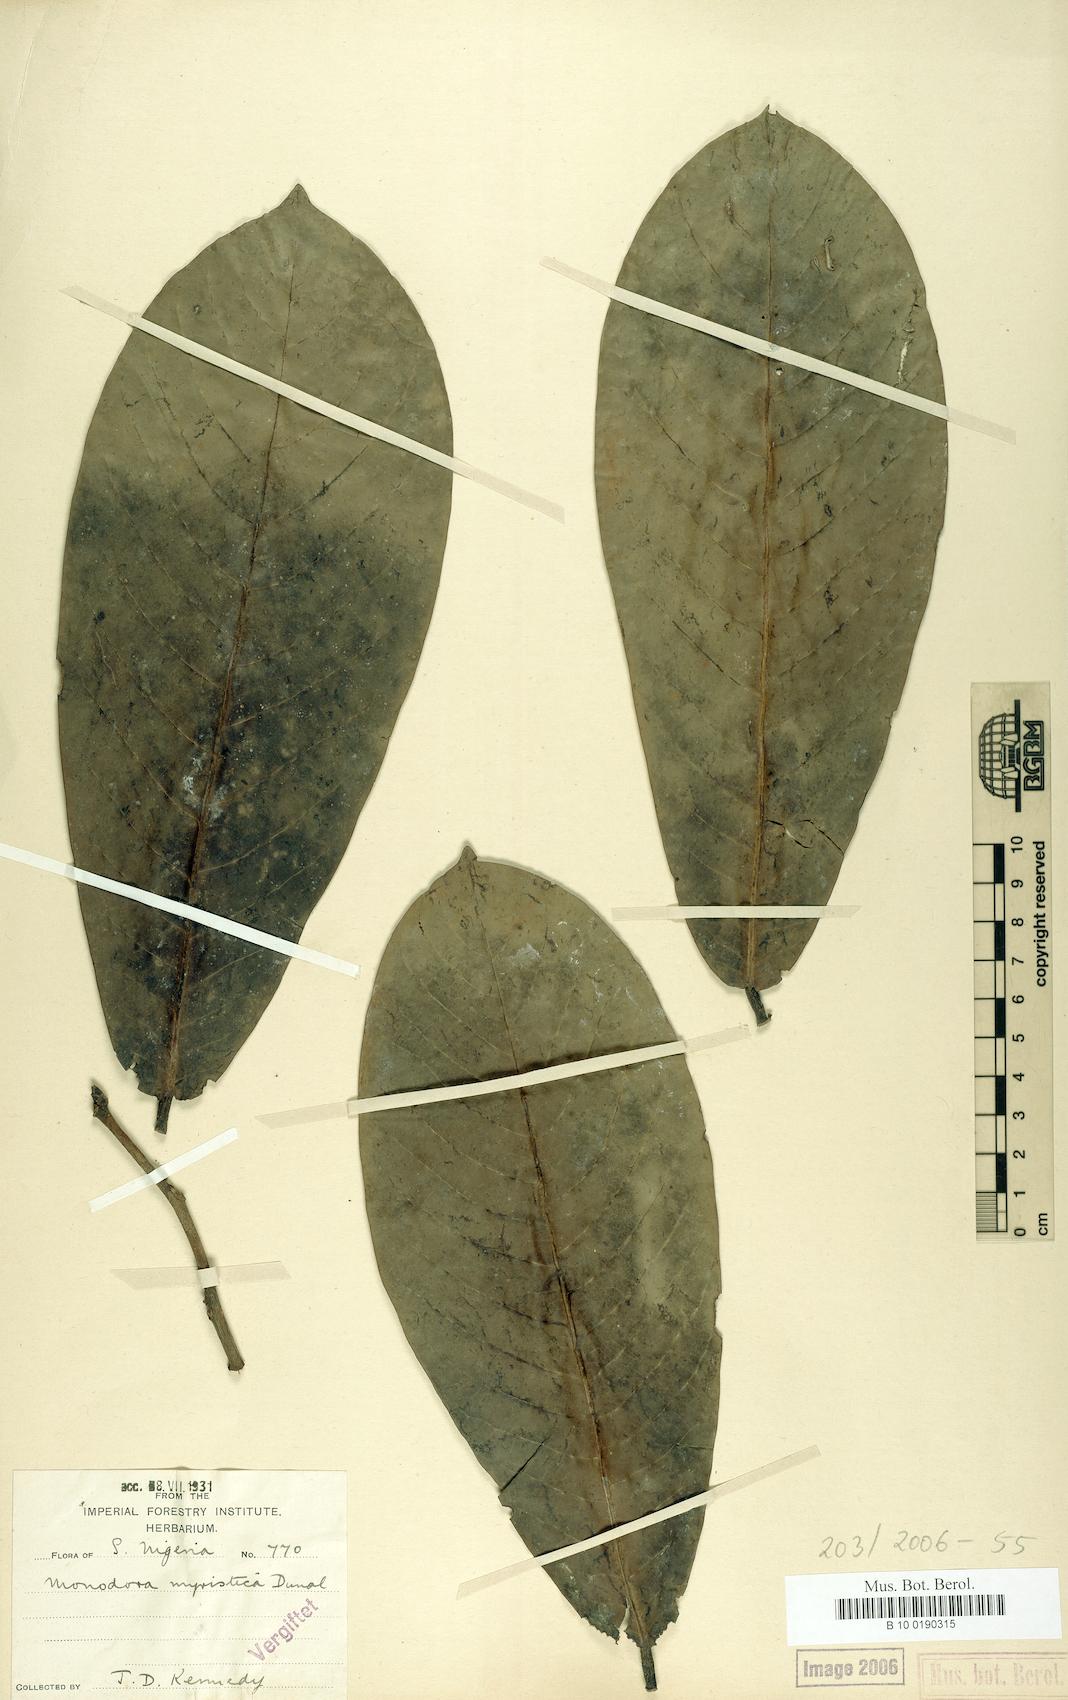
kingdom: Plantae
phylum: Tracheophyta
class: Magnoliopsida
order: Magnoliales
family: Annonaceae
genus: Monodora
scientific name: Monodora myristica
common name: African nutmeg
